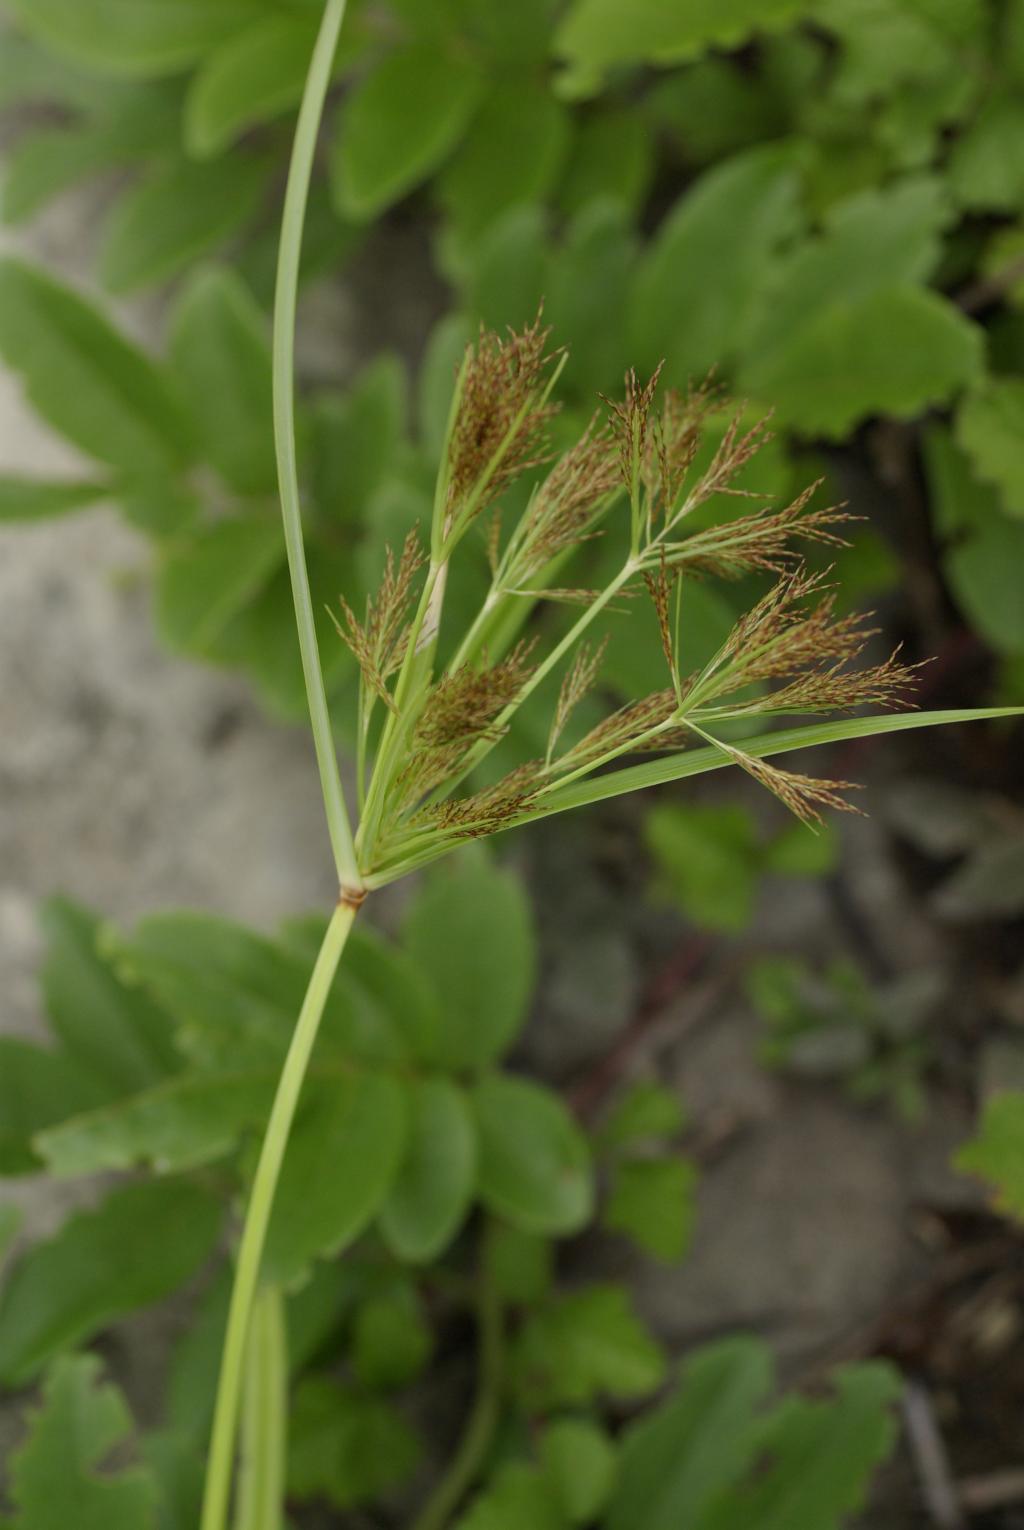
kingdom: Plantae
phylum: Tracheophyta
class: Liliopsida
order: Poales
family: Cyperaceae
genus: Cyperus
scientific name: Cyperus distans
